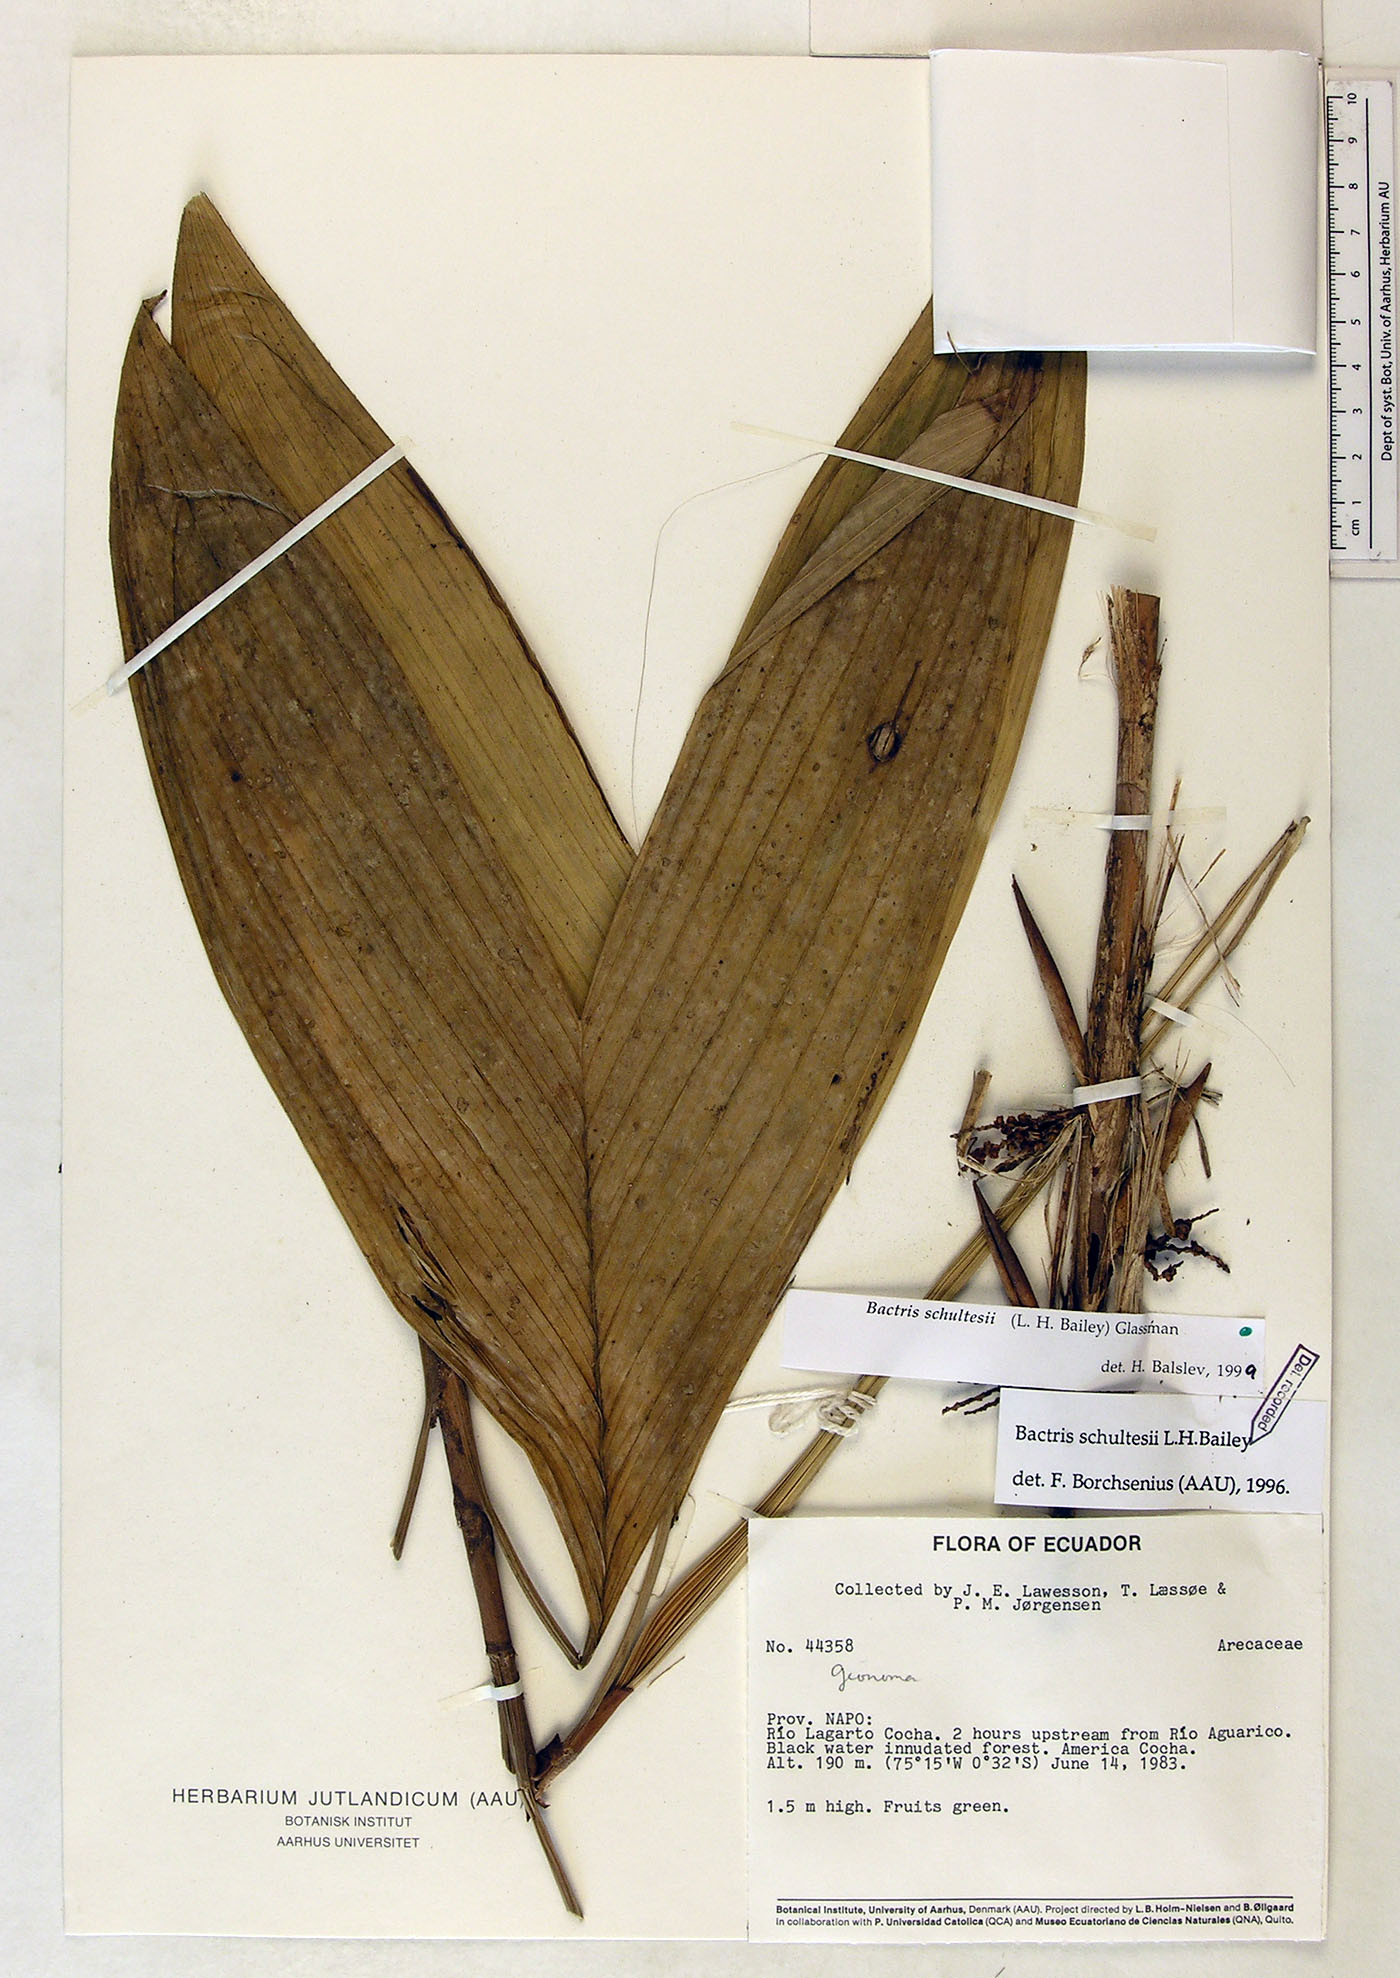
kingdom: Plantae
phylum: Tracheophyta
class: Liliopsida
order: Arecales
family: Arecaceae
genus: Bactris
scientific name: Bactris schultesii
